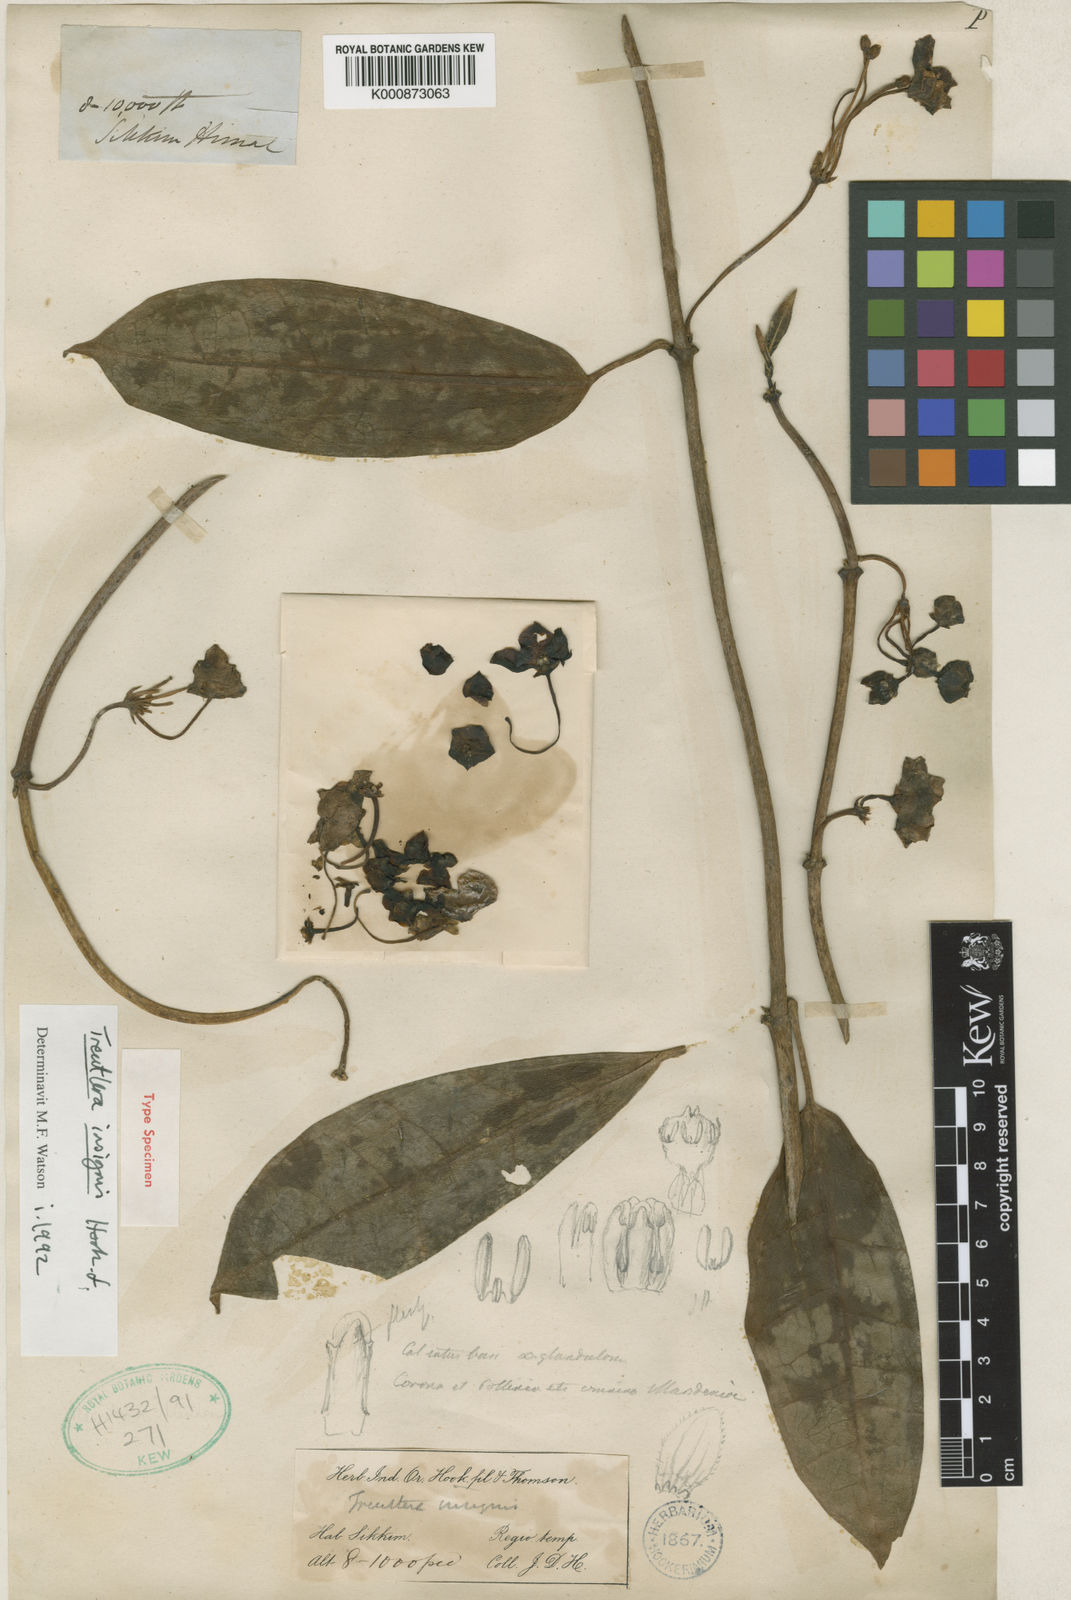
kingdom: Plantae
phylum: Tracheophyta
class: Magnoliopsida
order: Gentianales
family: Apocynaceae
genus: Treutlera
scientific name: Treutlera insignis
